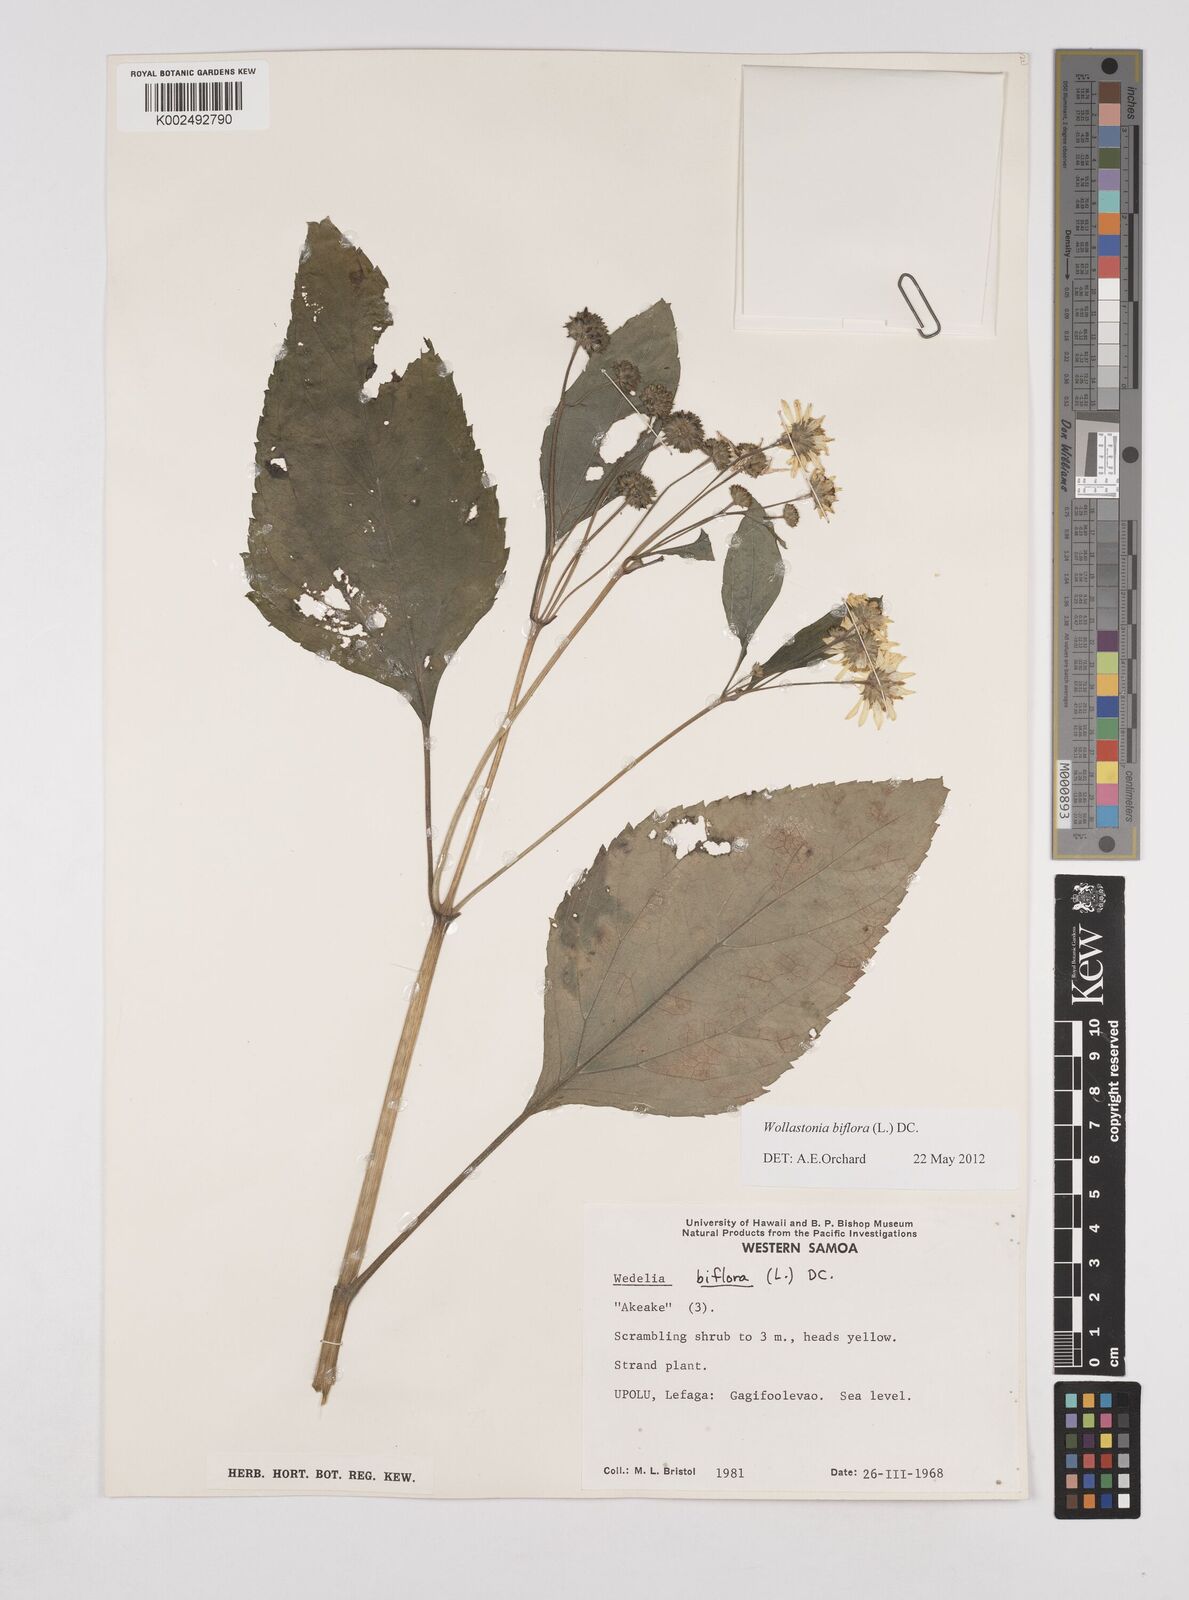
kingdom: Plantae
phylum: Tracheophyta
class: Magnoliopsida
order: Asterales
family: Asteraceae
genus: Wollastonia
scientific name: Wollastonia biflora
